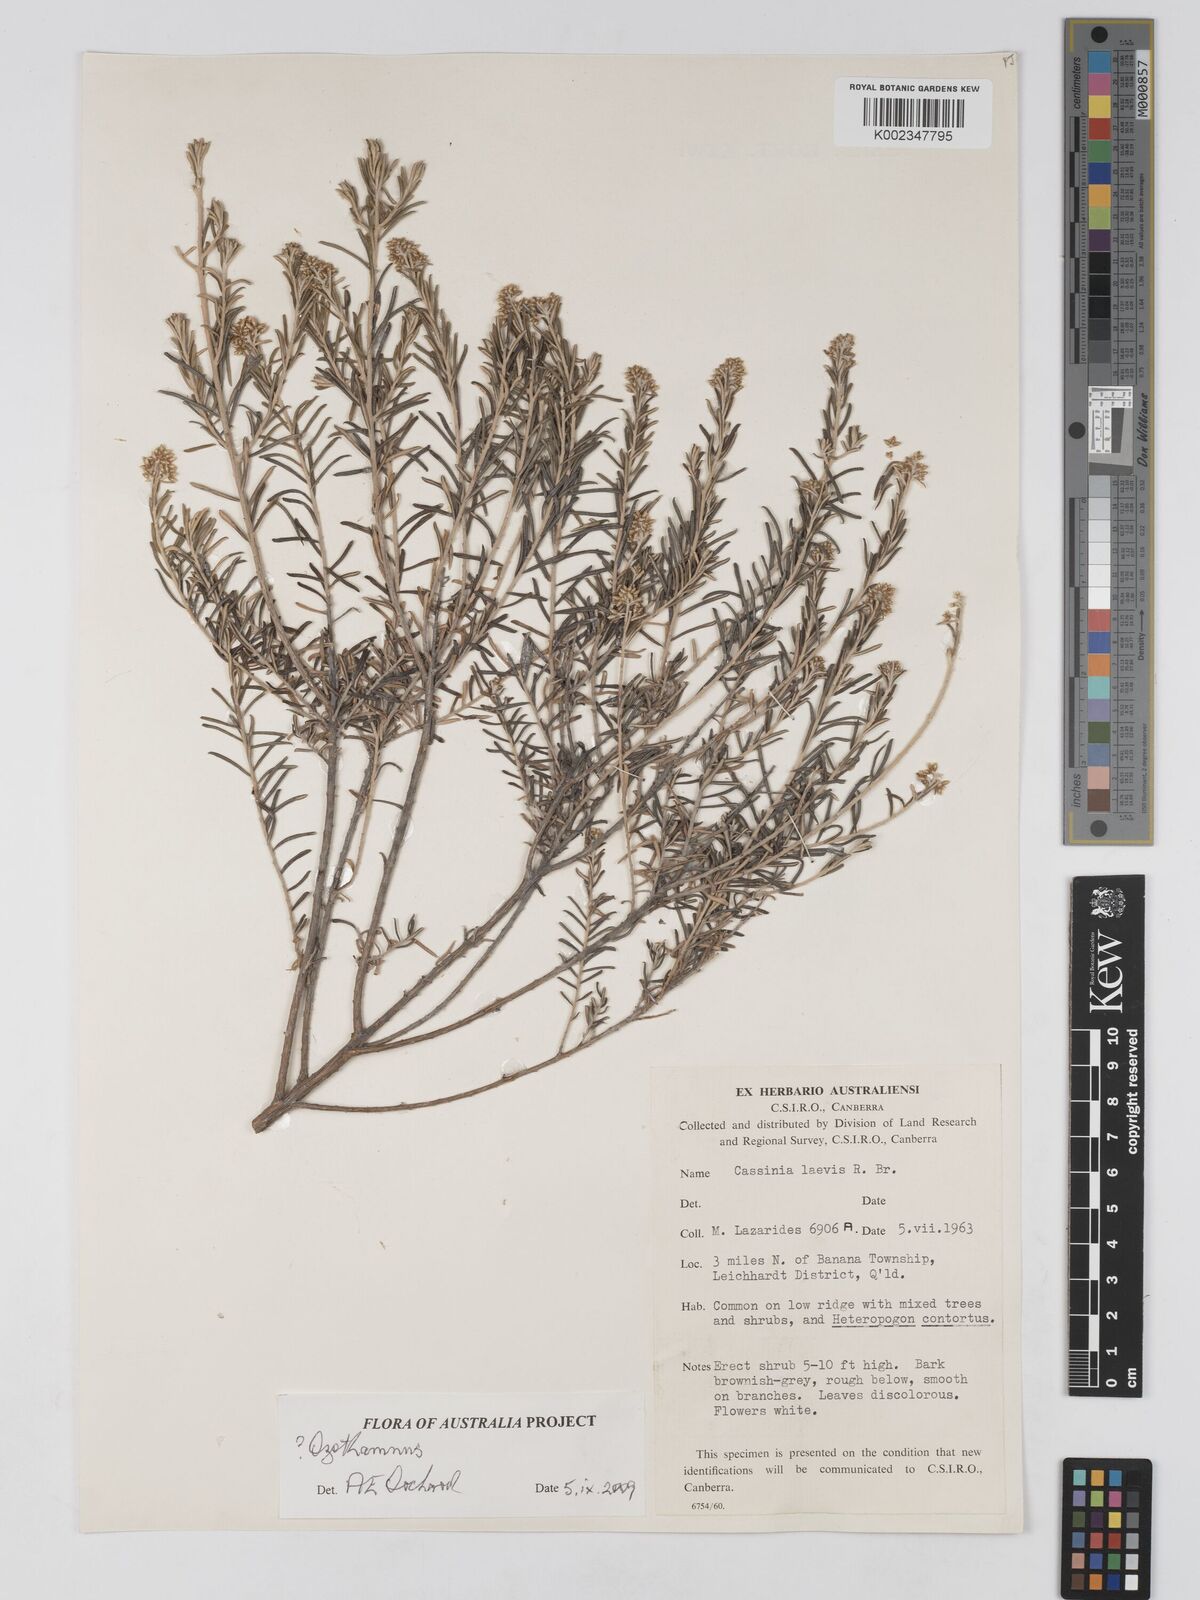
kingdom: Plantae
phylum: Tracheophyta
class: Magnoliopsida
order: Asterales
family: Asteraceae
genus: Ozothamnus
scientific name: Ozothamnus
